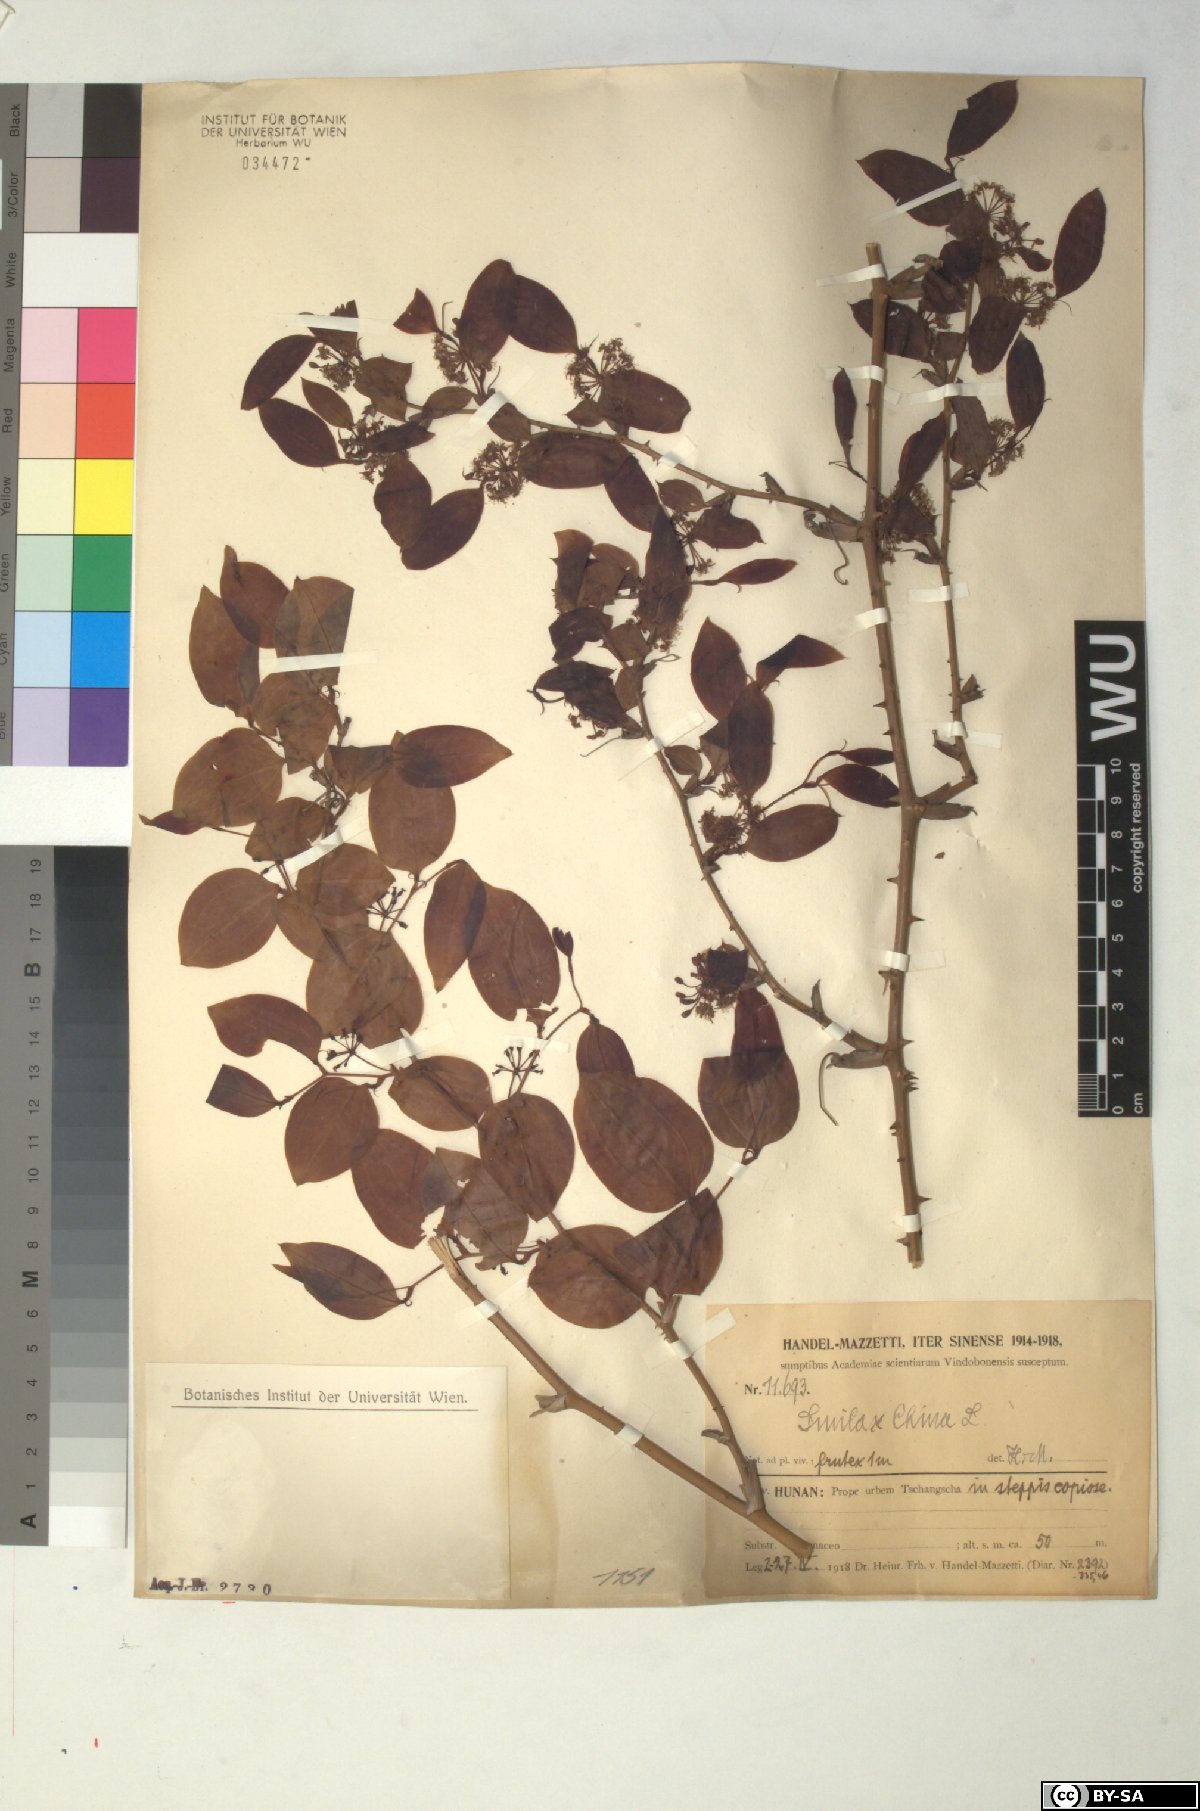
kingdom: Plantae
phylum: Tracheophyta
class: Liliopsida
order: Liliales
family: Smilacaceae
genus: Smilax
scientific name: Smilax china
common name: Chinaroot
